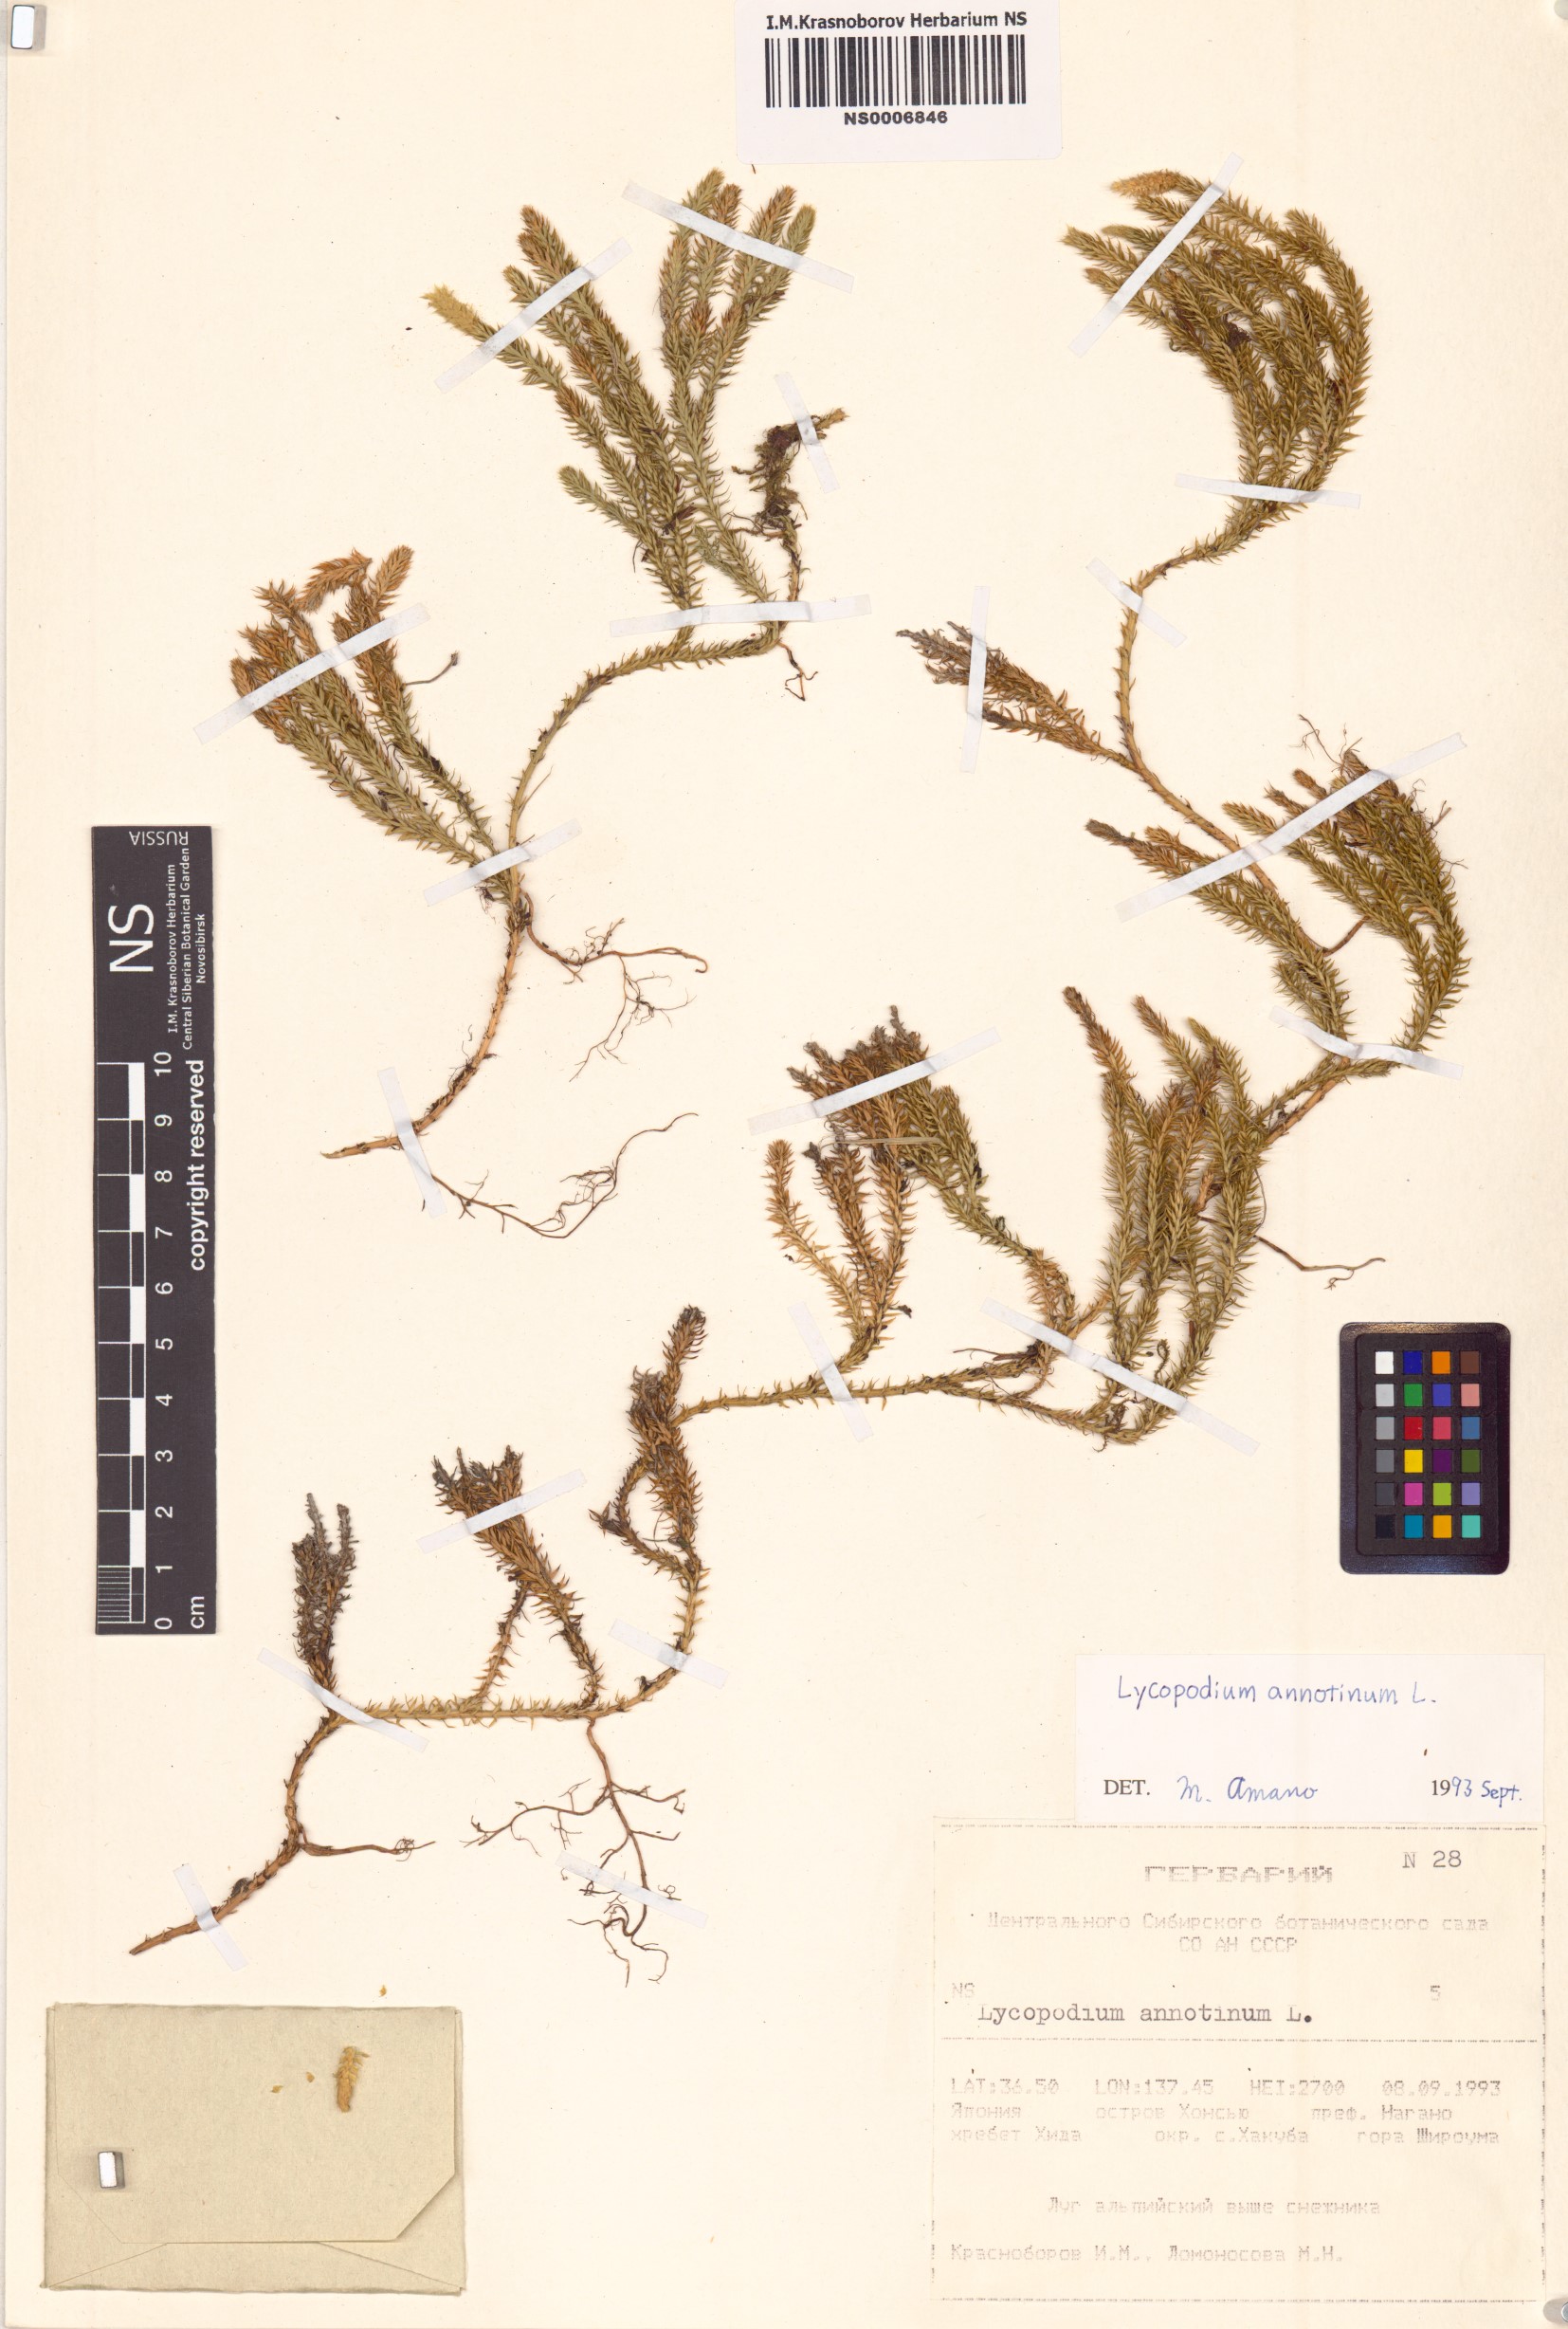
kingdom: Plantae
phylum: Tracheophyta
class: Lycopodiopsida
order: Lycopodiales
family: Lycopodiaceae
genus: Spinulum
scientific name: Spinulum annotinum
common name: Interrupted club-moss
